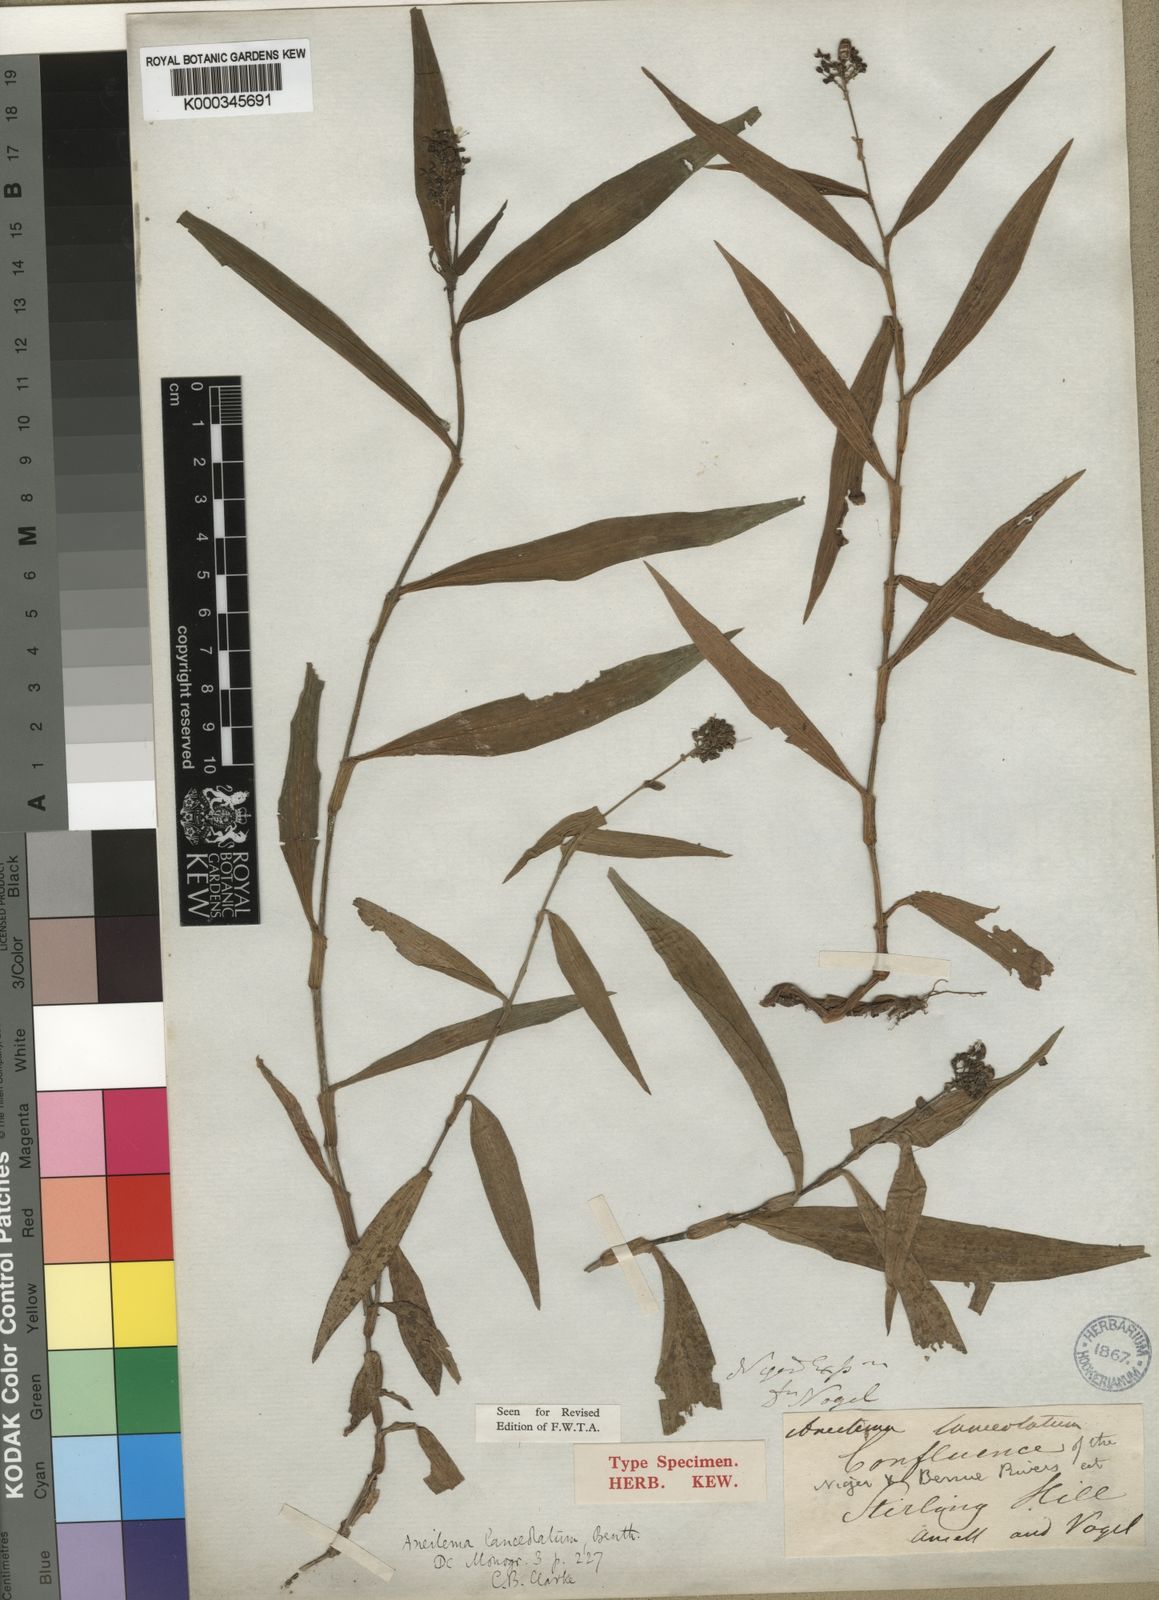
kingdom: Plantae
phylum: Tracheophyta
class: Liliopsida
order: Commelinales
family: Commelinaceae
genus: Aneilema
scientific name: Aneilema lanceolatum
